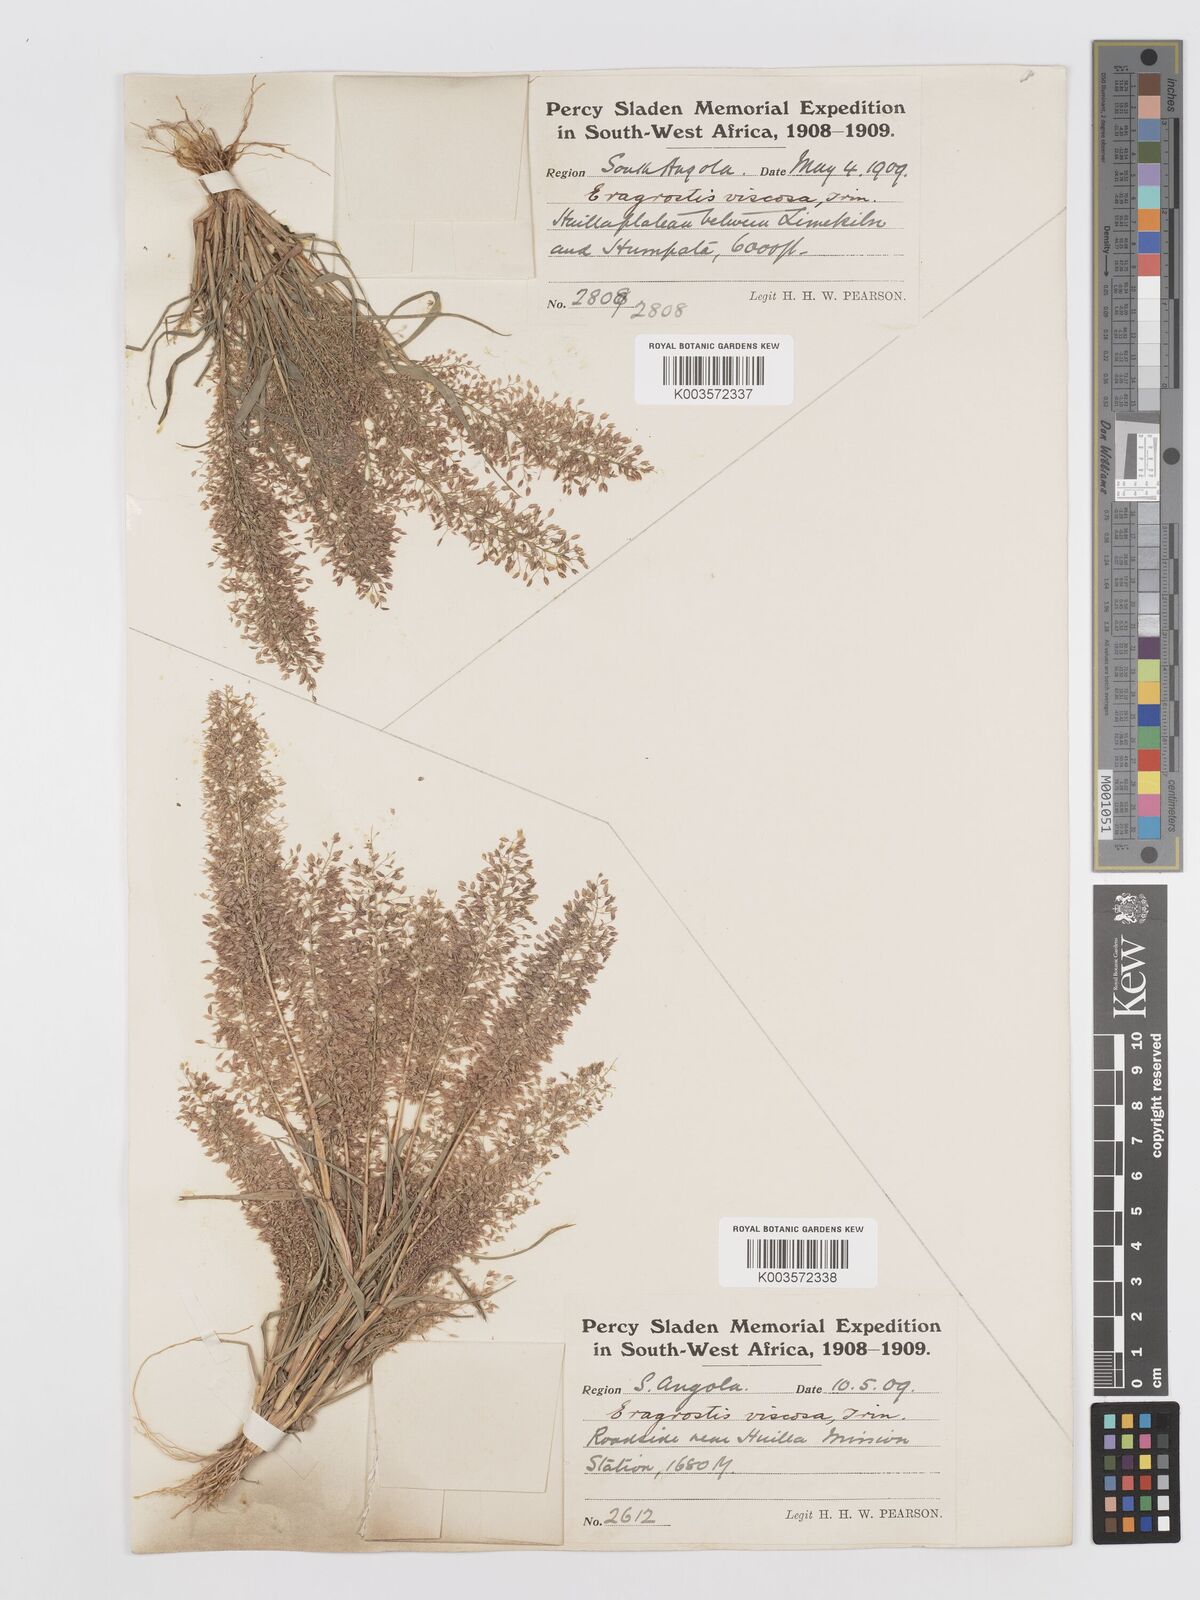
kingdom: Plantae
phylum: Tracheophyta
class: Liliopsida
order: Poales
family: Poaceae
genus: Eragrostis
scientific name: Eragrostis
